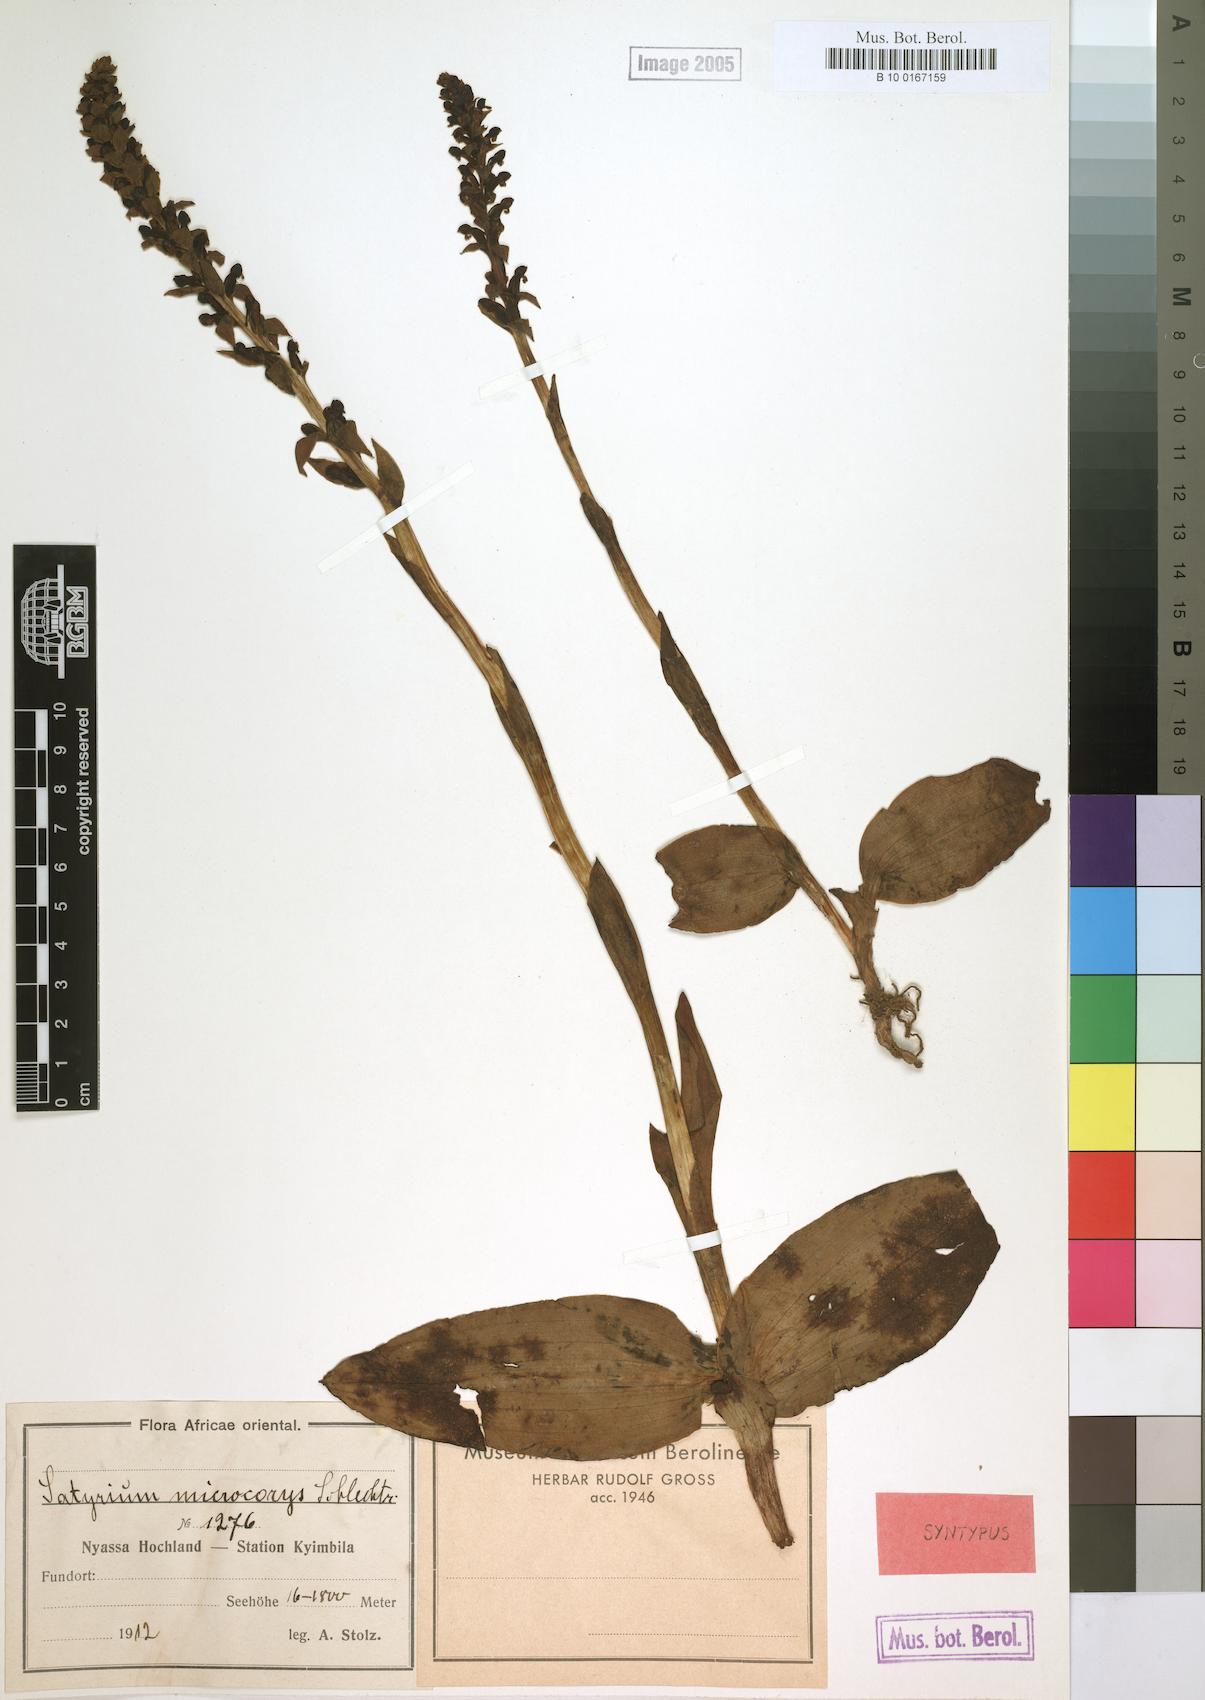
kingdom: Plantae
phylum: Tracheophyta
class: Liliopsida
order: Asparagales
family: Orchidaceae
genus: Satyrium
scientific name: Satyrium microcorys
